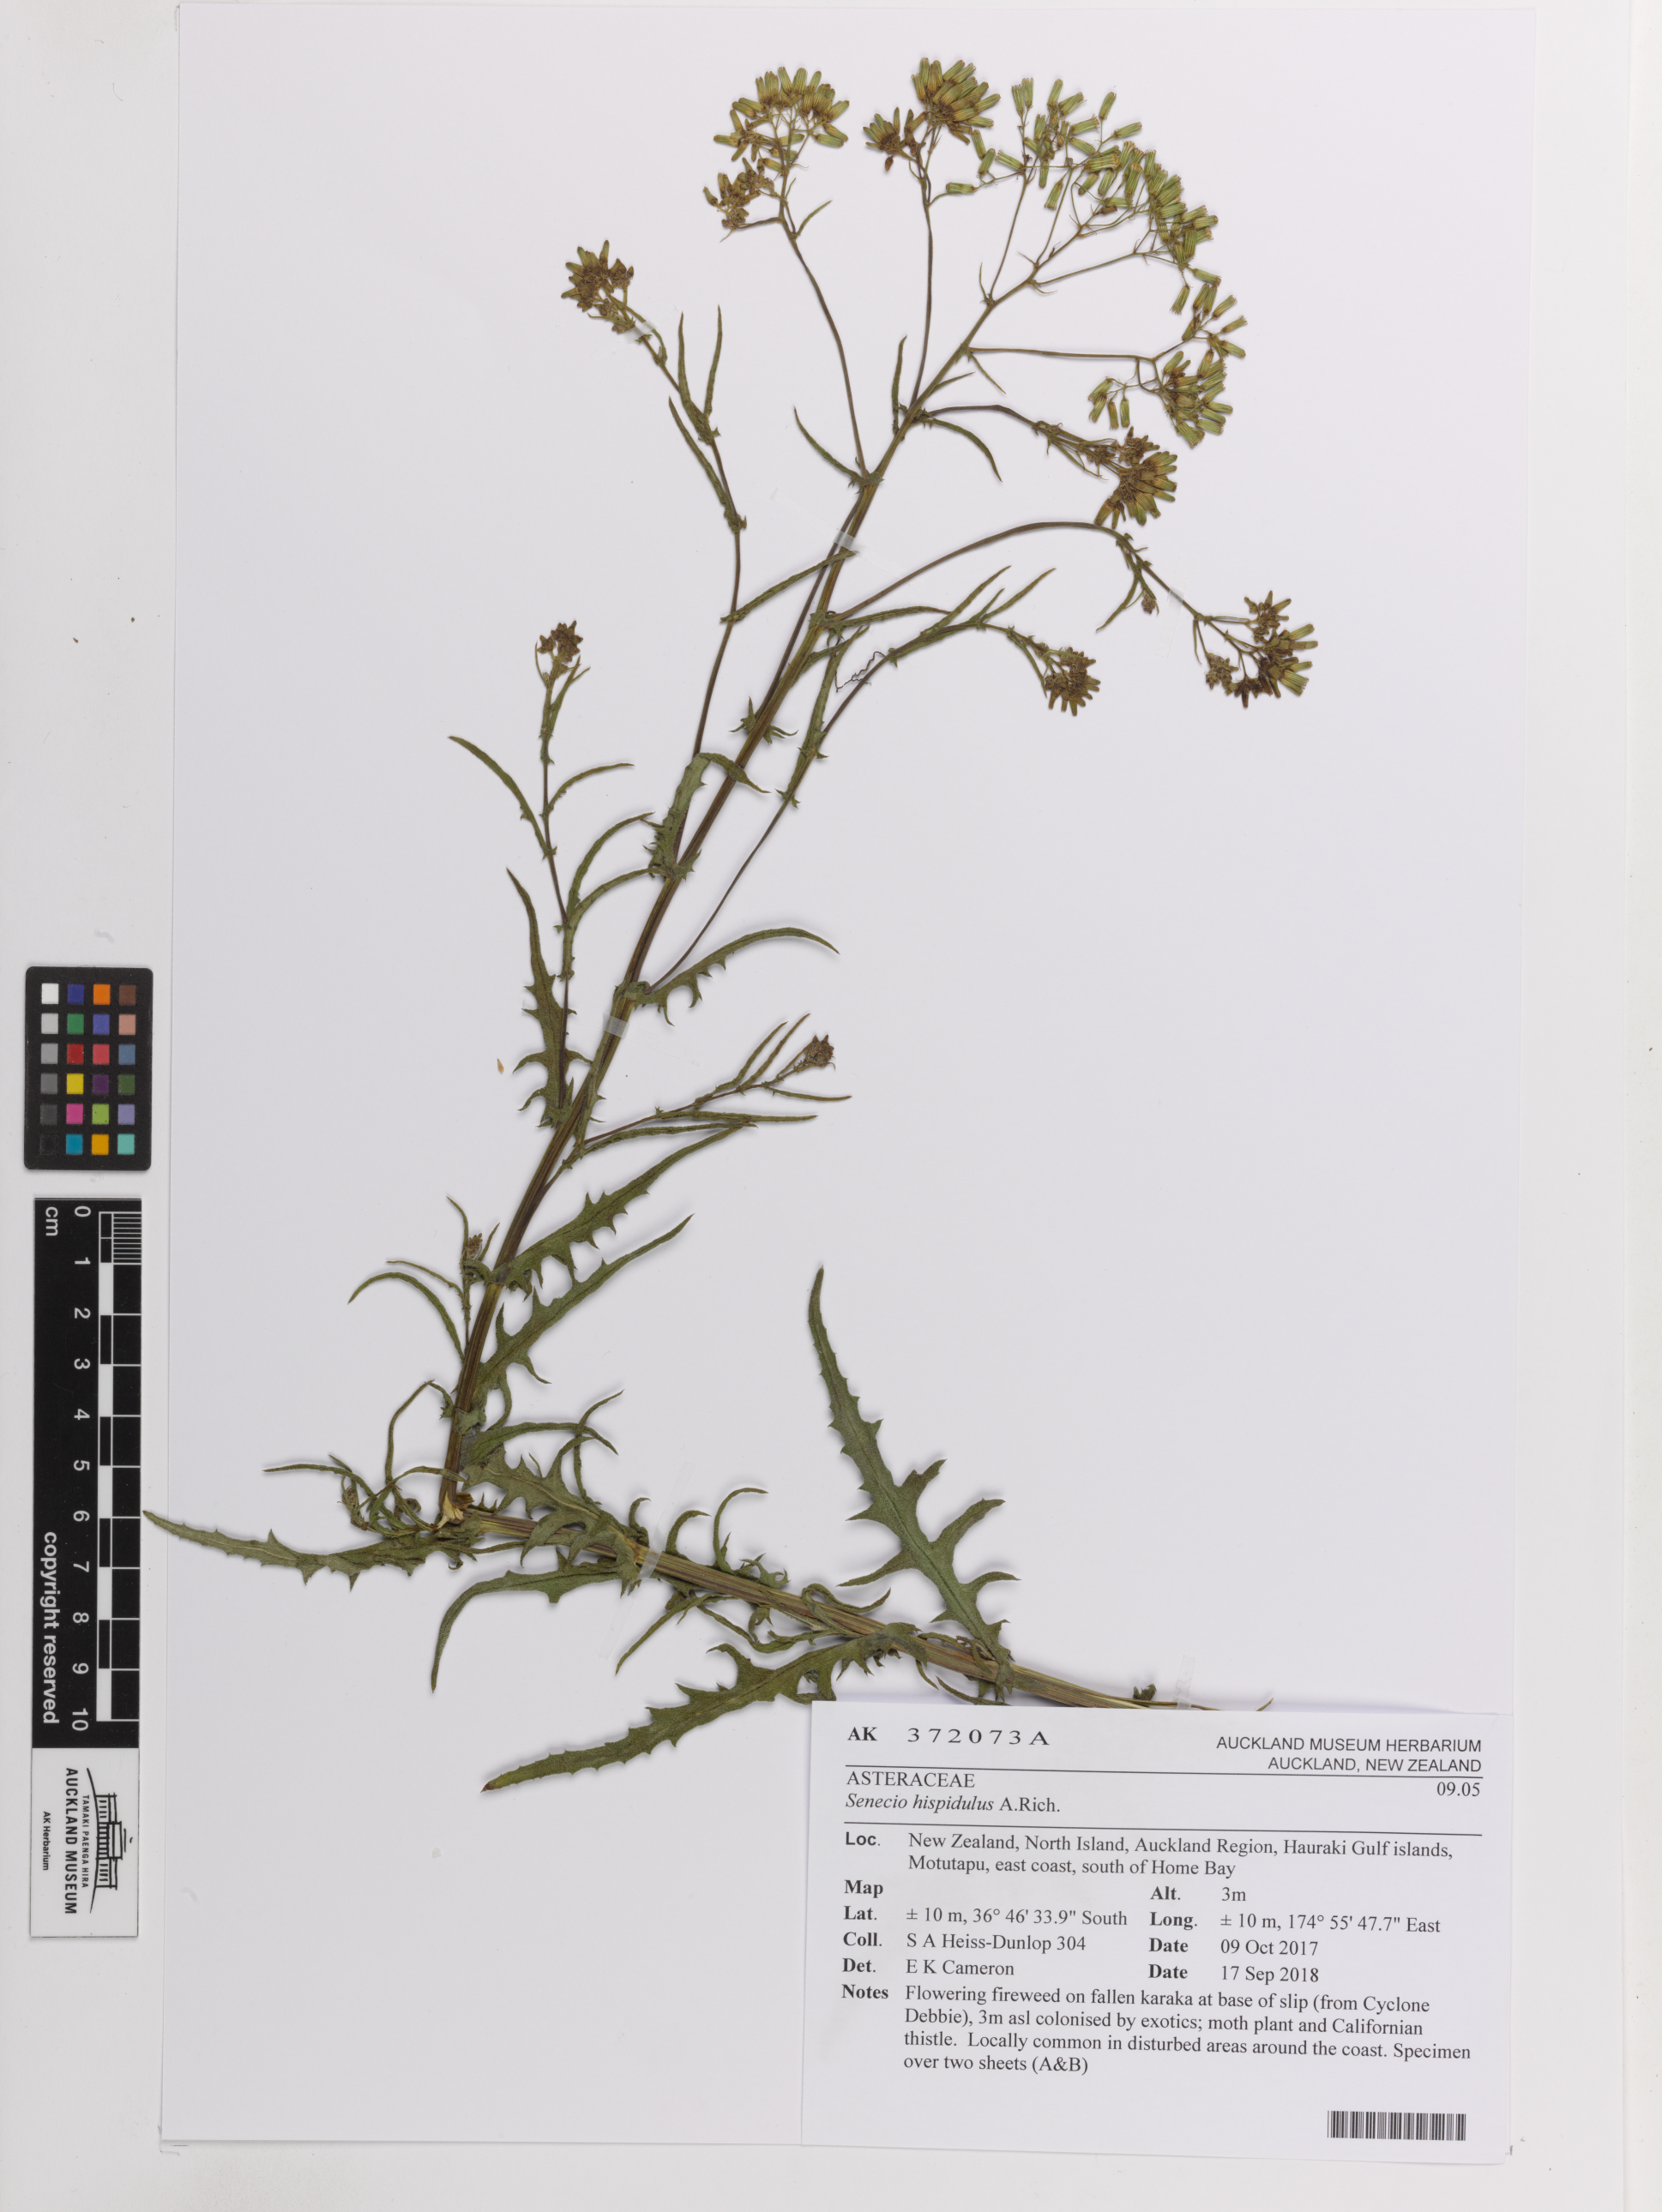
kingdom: Plantae
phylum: Tracheophyta
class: Magnoliopsida
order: Asterales
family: Asteraceae
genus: Senecio
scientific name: Senecio hispidulus
